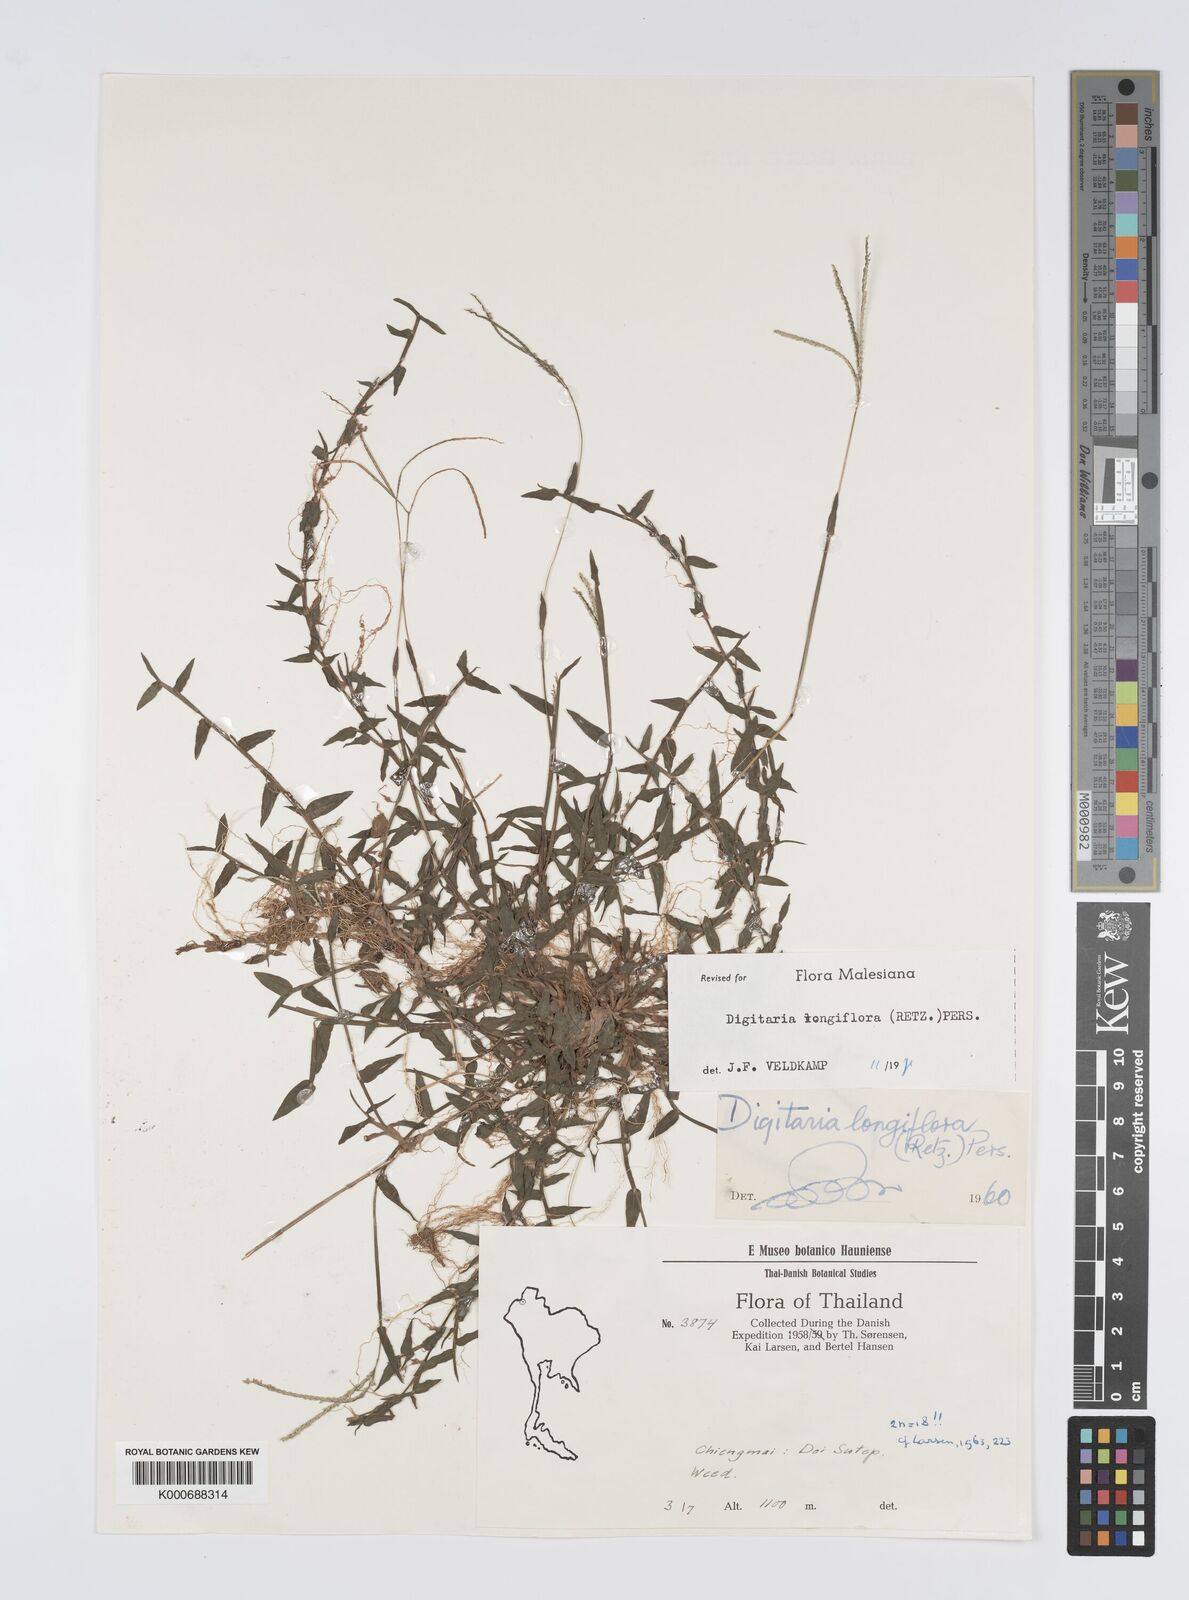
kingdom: Plantae
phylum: Tracheophyta
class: Liliopsida
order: Poales
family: Poaceae
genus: Digitaria
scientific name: Digitaria longiflora
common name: Wire crabgrass
